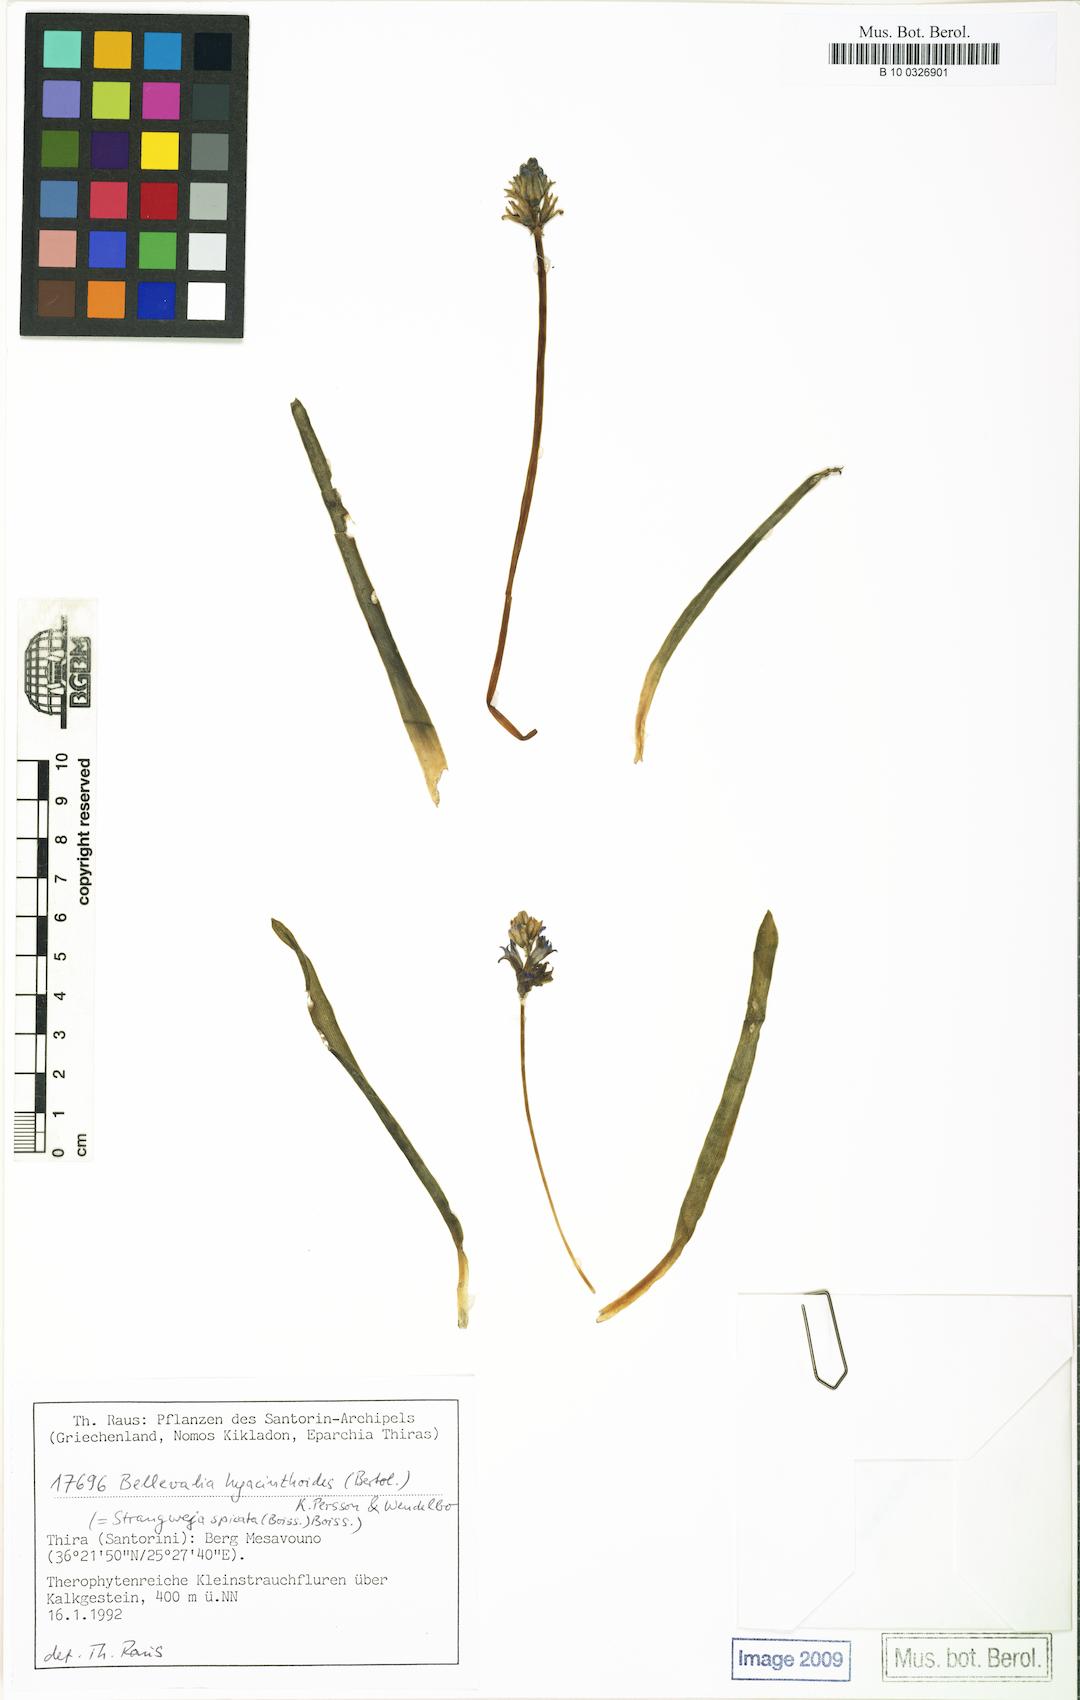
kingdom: Plantae
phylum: Tracheophyta
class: Liliopsida
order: Asparagales
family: Asparagaceae
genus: Bellevalia
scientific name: Bellevalia hyacinthoides
